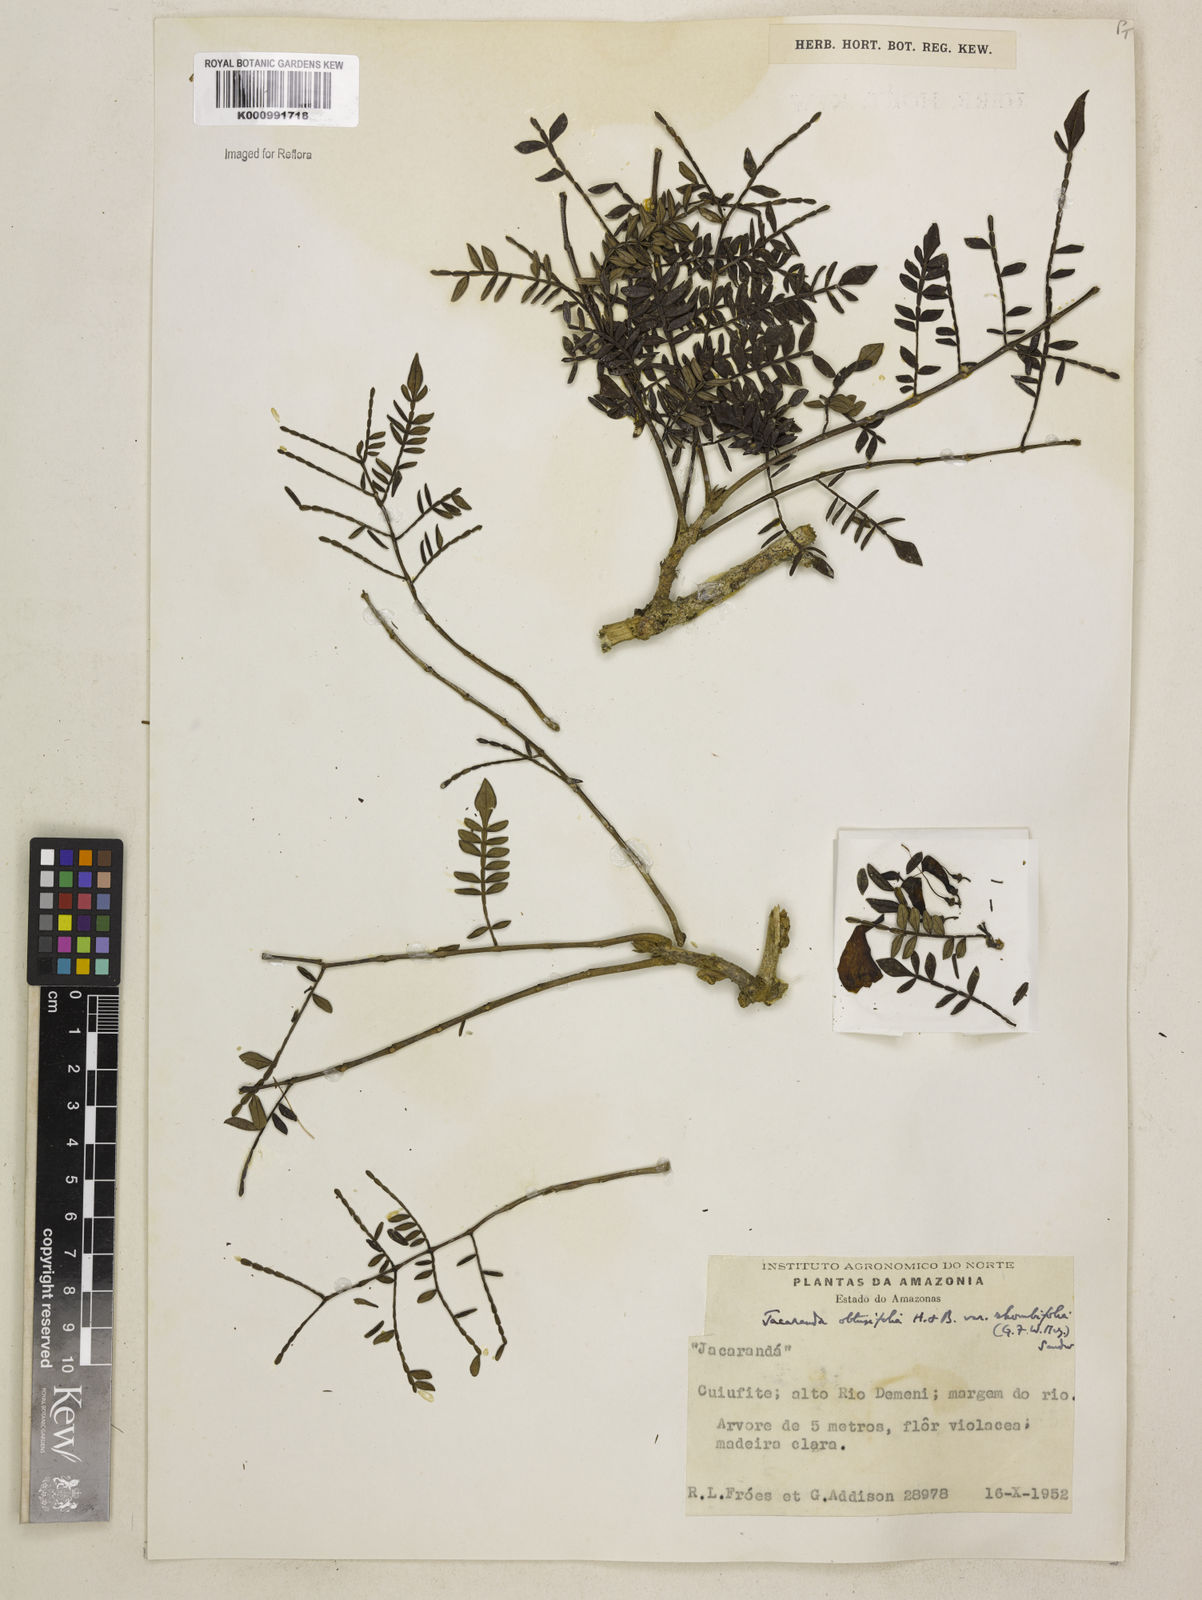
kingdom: Plantae
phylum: Tracheophyta
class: Magnoliopsida
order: Lamiales
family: Bignoniaceae
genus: Jacaranda
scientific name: Jacaranda obtusifolia
